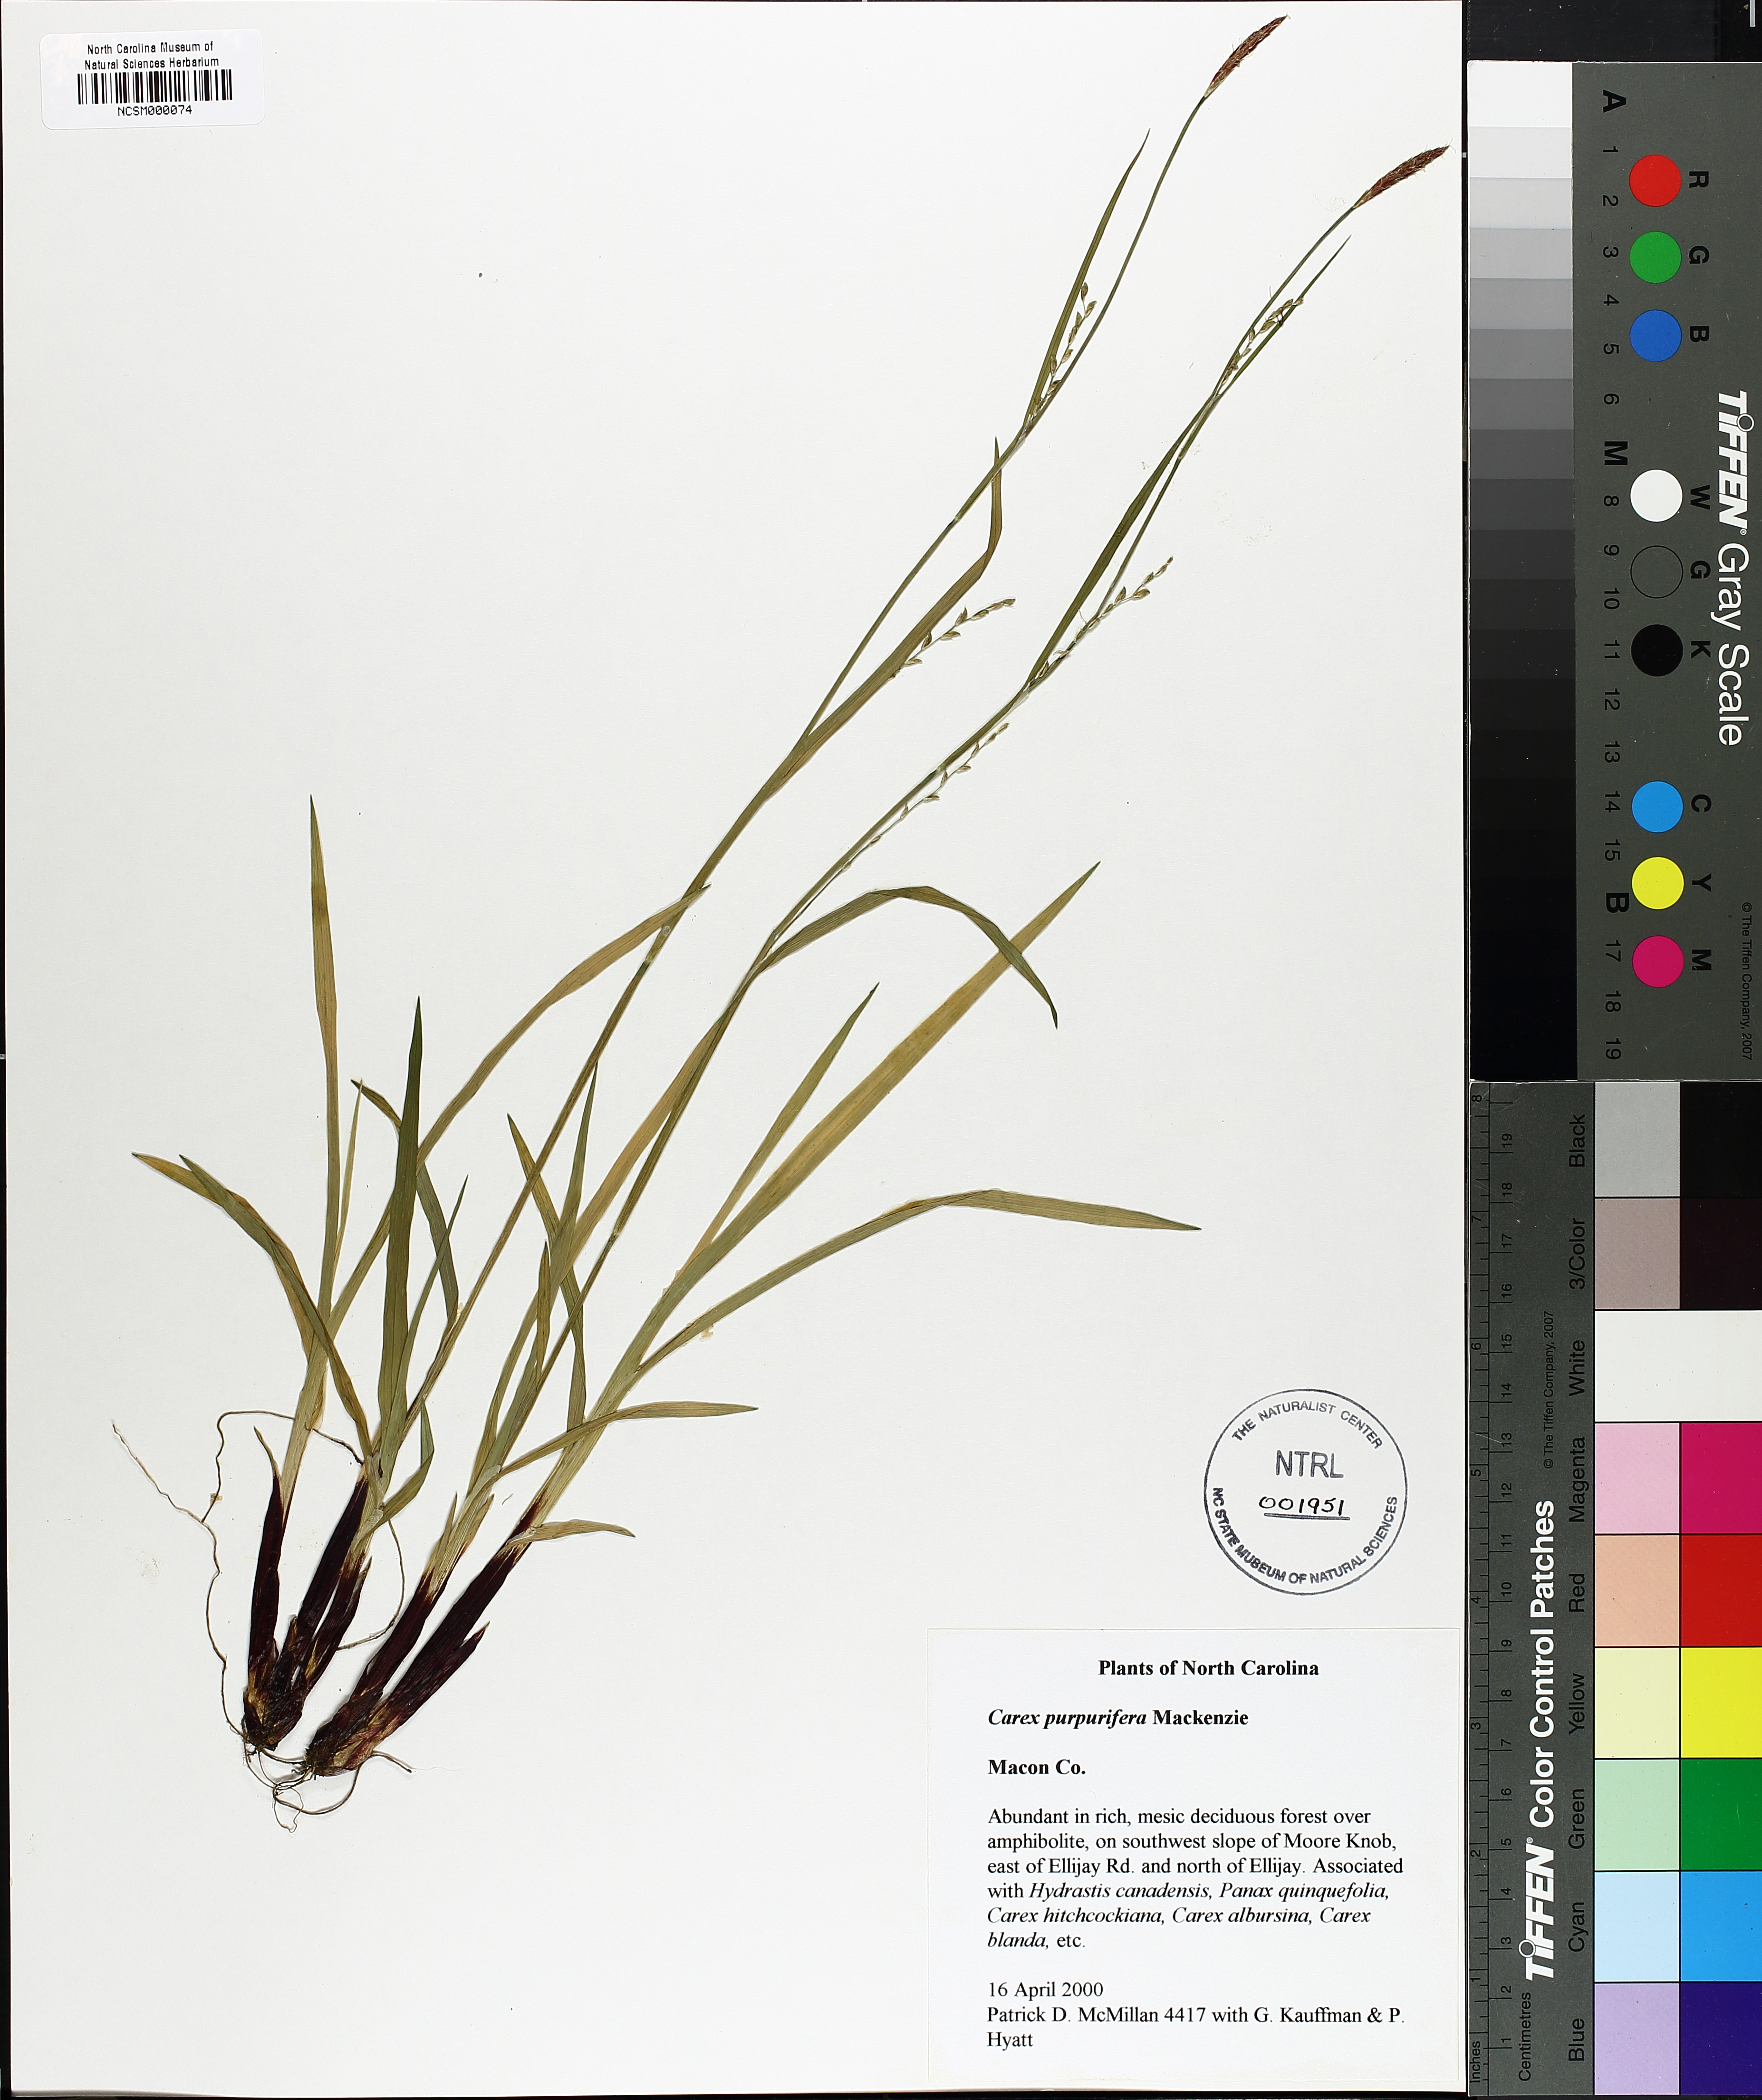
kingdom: Plantae
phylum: Tracheophyta
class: Liliopsida
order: Poales
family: Cyperaceae
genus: Carex
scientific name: Carex purpurifera
